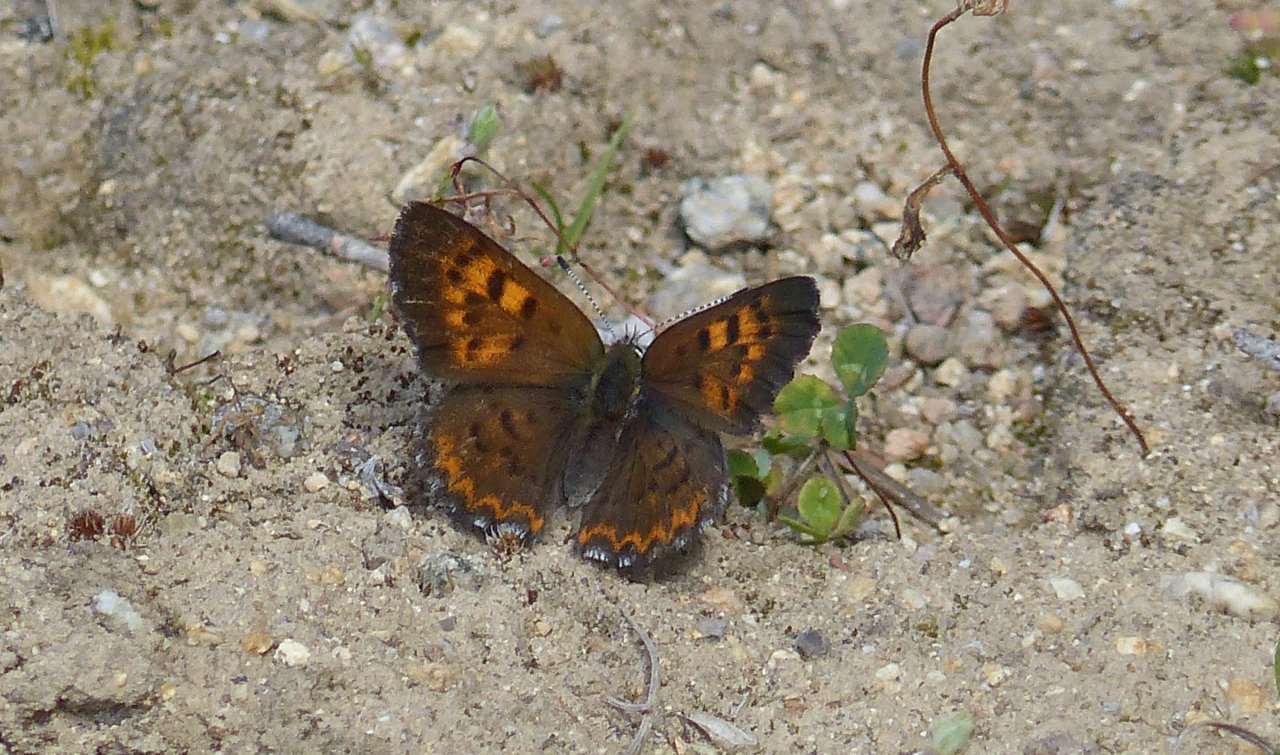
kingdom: Animalia
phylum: Arthropoda
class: Insecta
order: Lepidoptera
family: Lycaenidae
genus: Lycaena
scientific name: Lycaena mariposa
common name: Mariposa Copper
